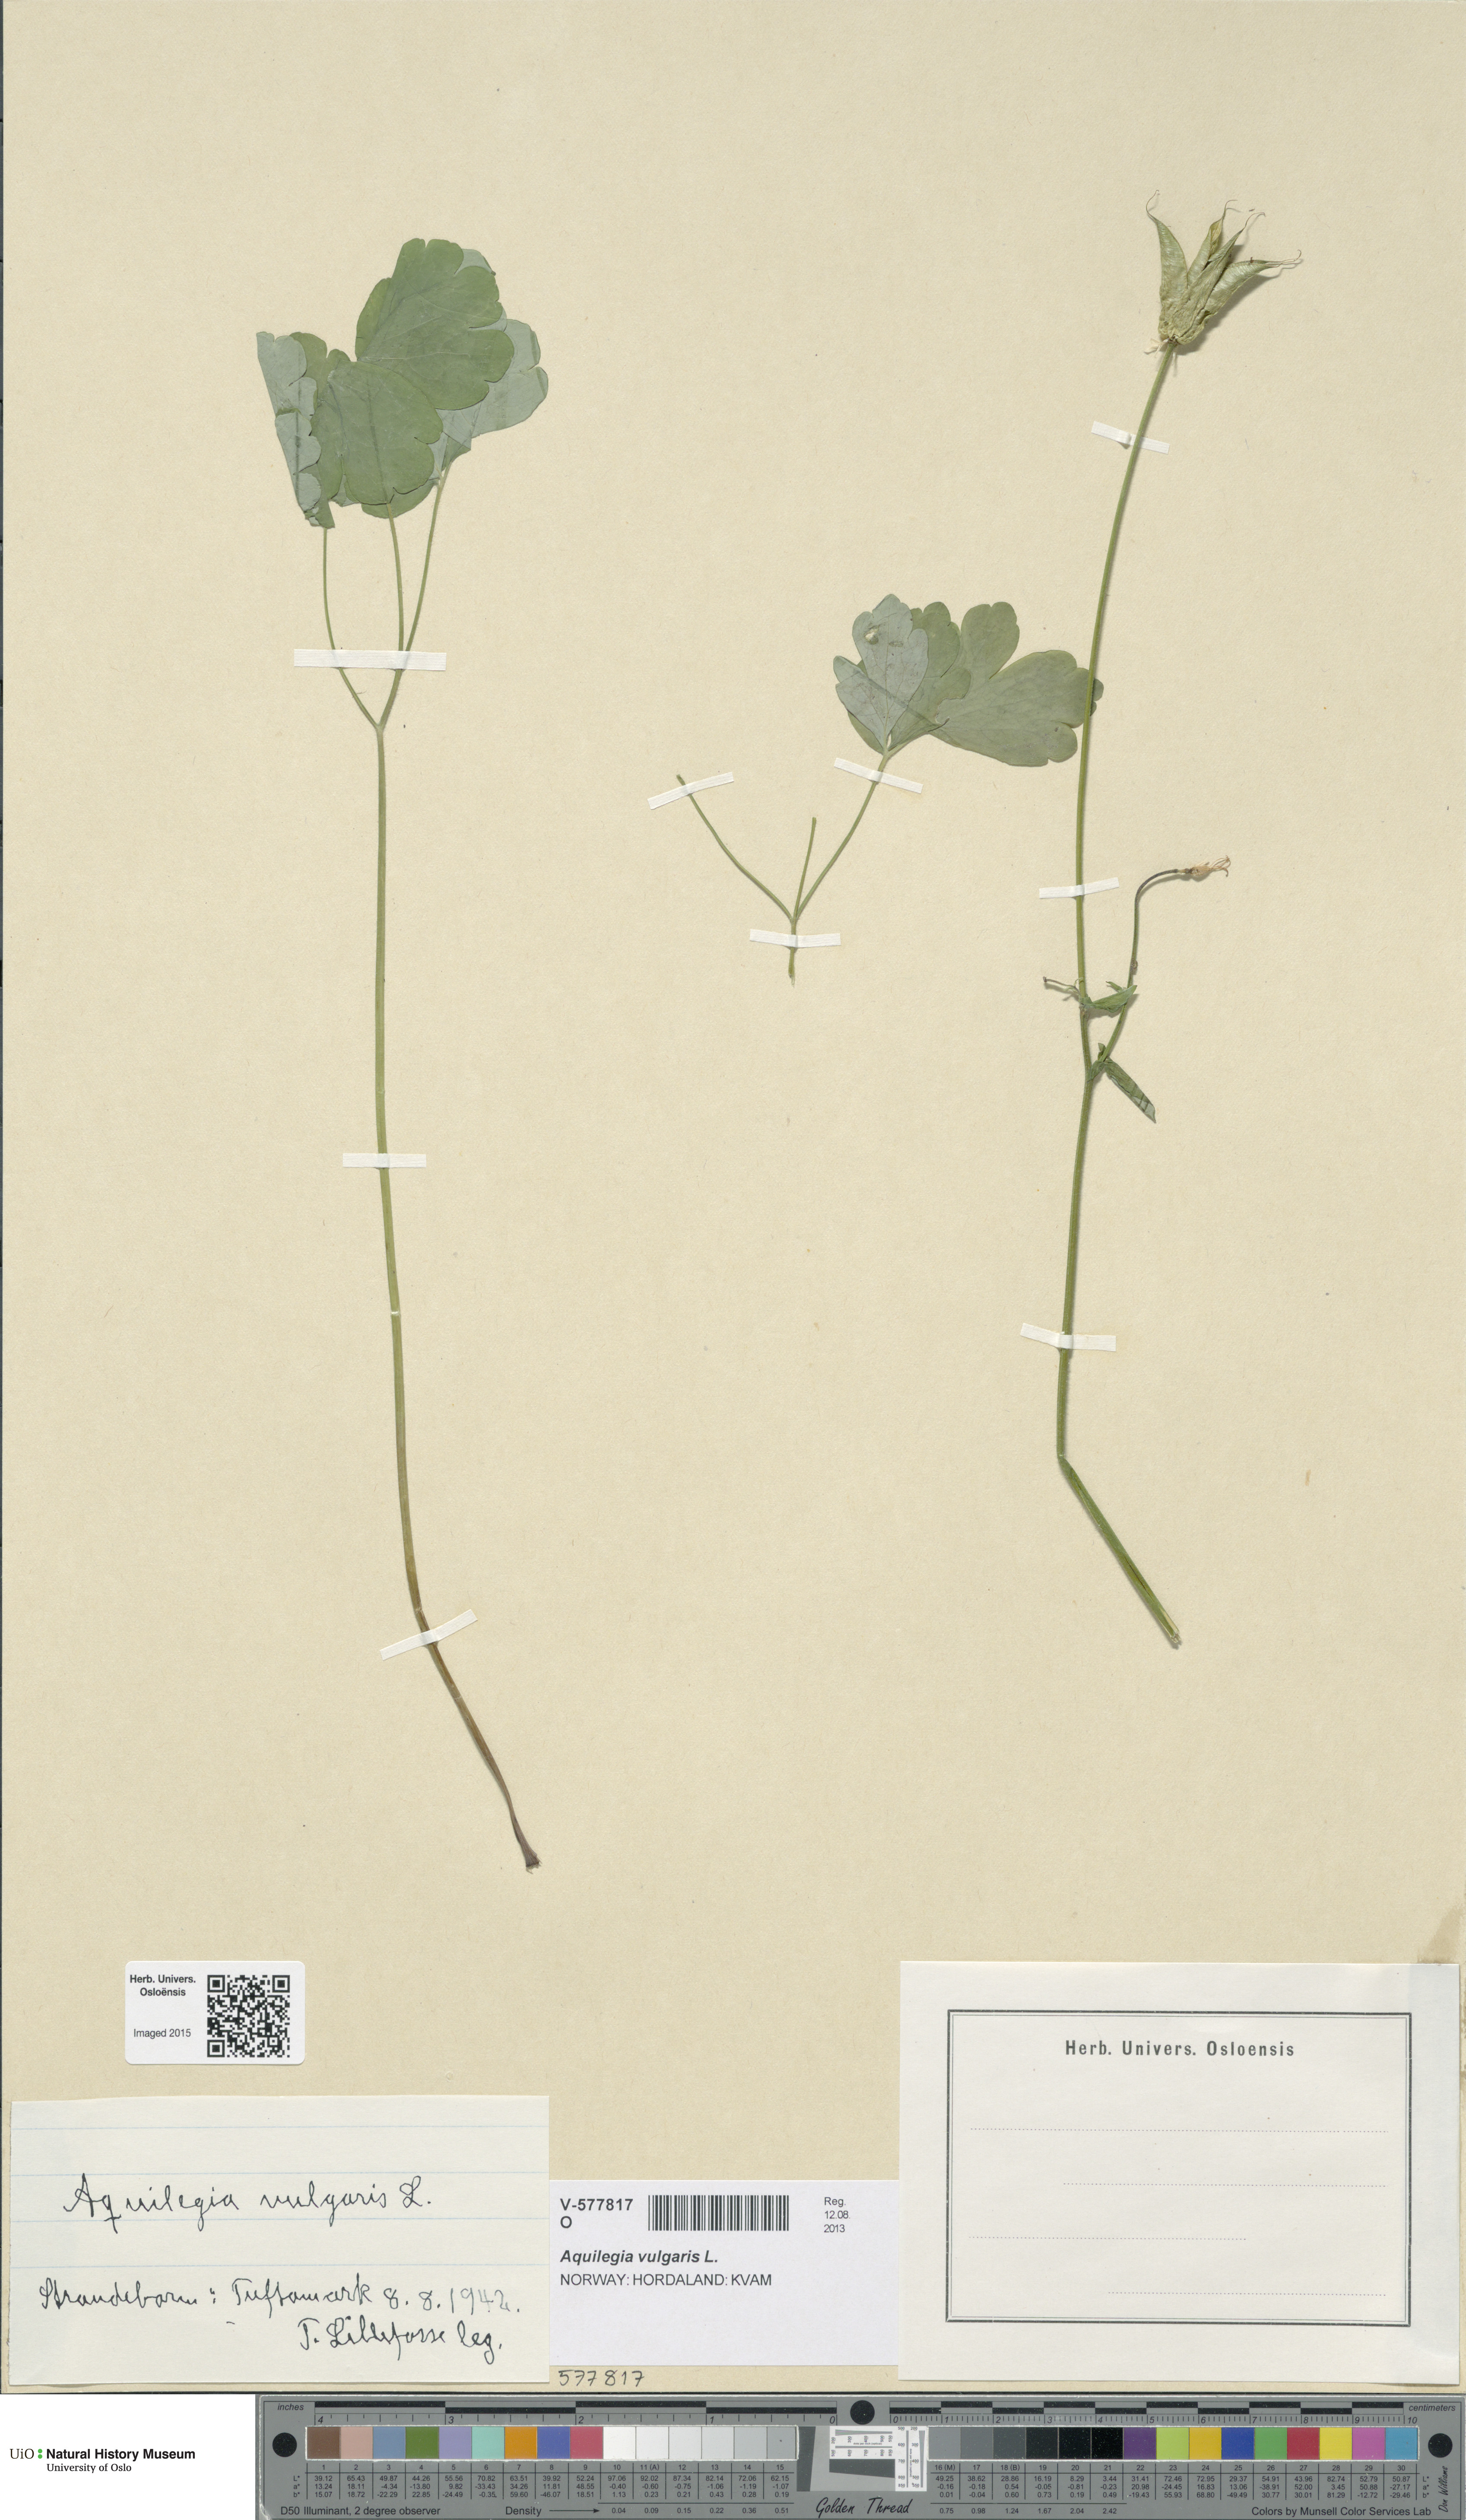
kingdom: Plantae
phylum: Tracheophyta
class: Magnoliopsida
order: Ranunculales
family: Ranunculaceae
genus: Aquilegia
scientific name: Aquilegia vulgaris
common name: Columbine
